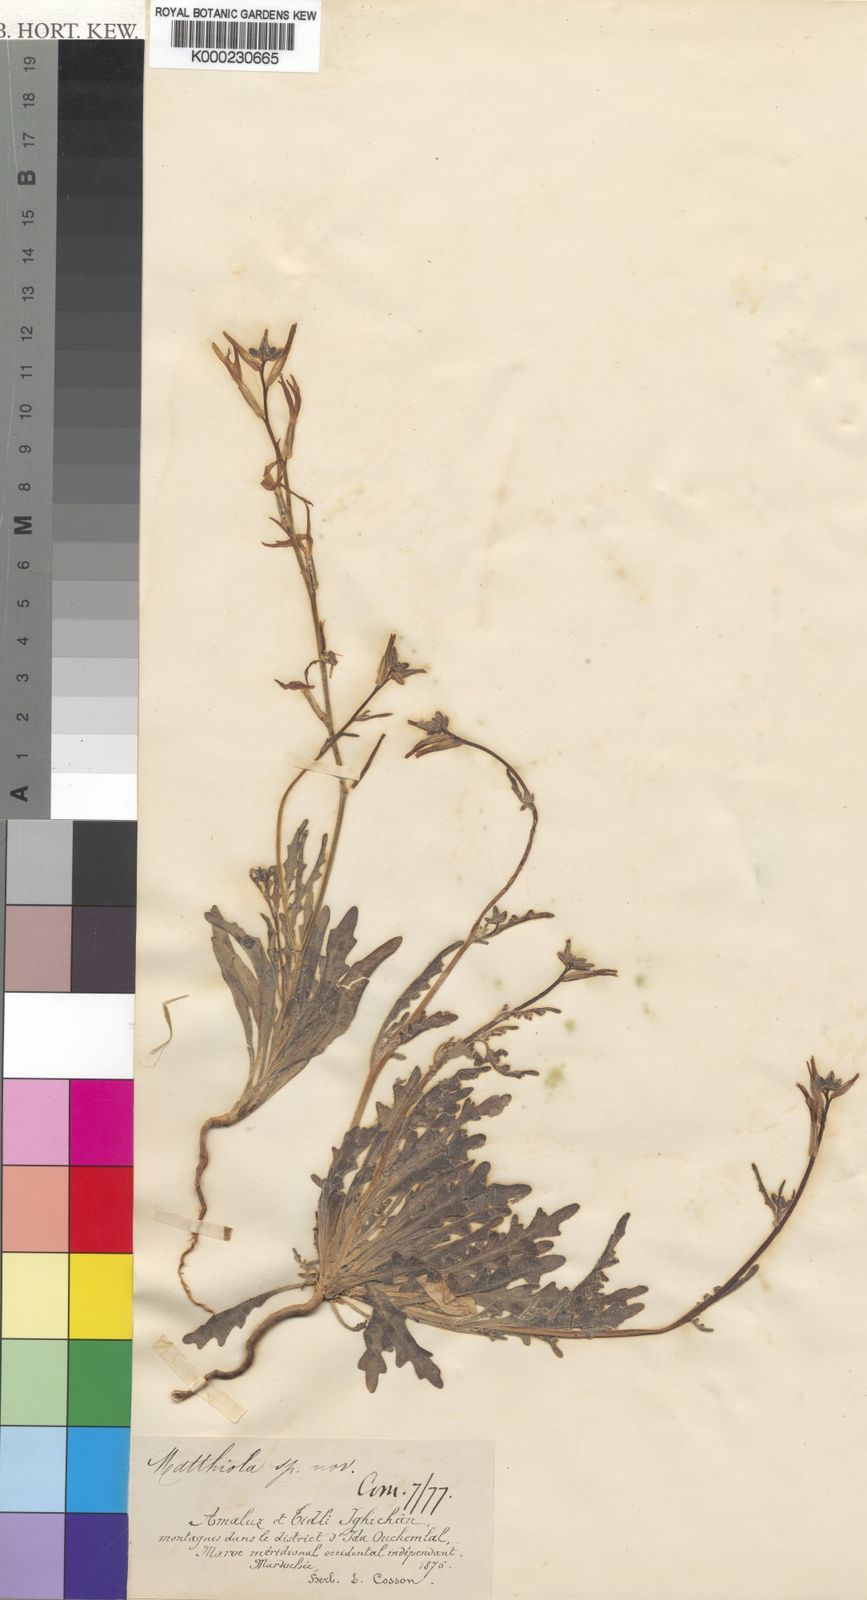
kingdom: Plantae
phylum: Tracheophyta
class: Magnoliopsida
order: Brassicales
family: Brassicaceae
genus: Matthiola
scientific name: Matthiola maroccana
